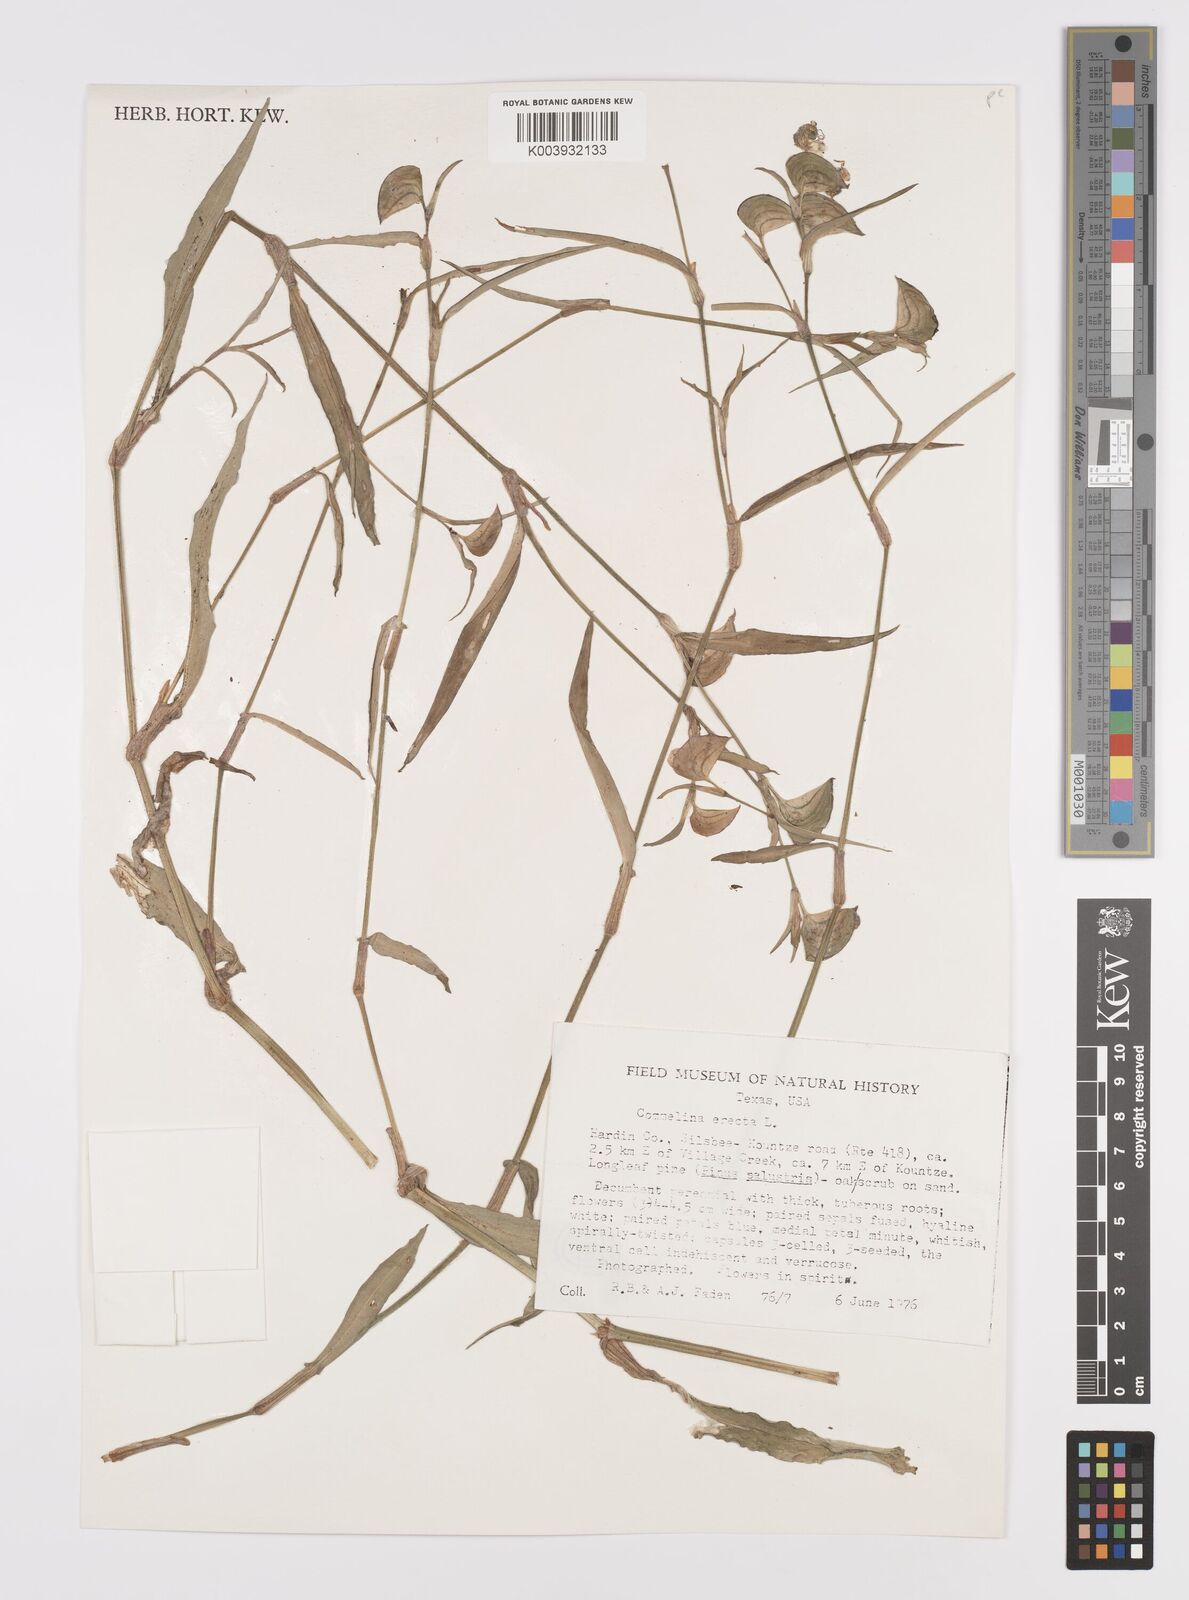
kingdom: Plantae
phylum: Tracheophyta
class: Liliopsida
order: Commelinales
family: Commelinaceae
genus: Commelina
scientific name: Commelina erecta
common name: Blousel blommetjie
